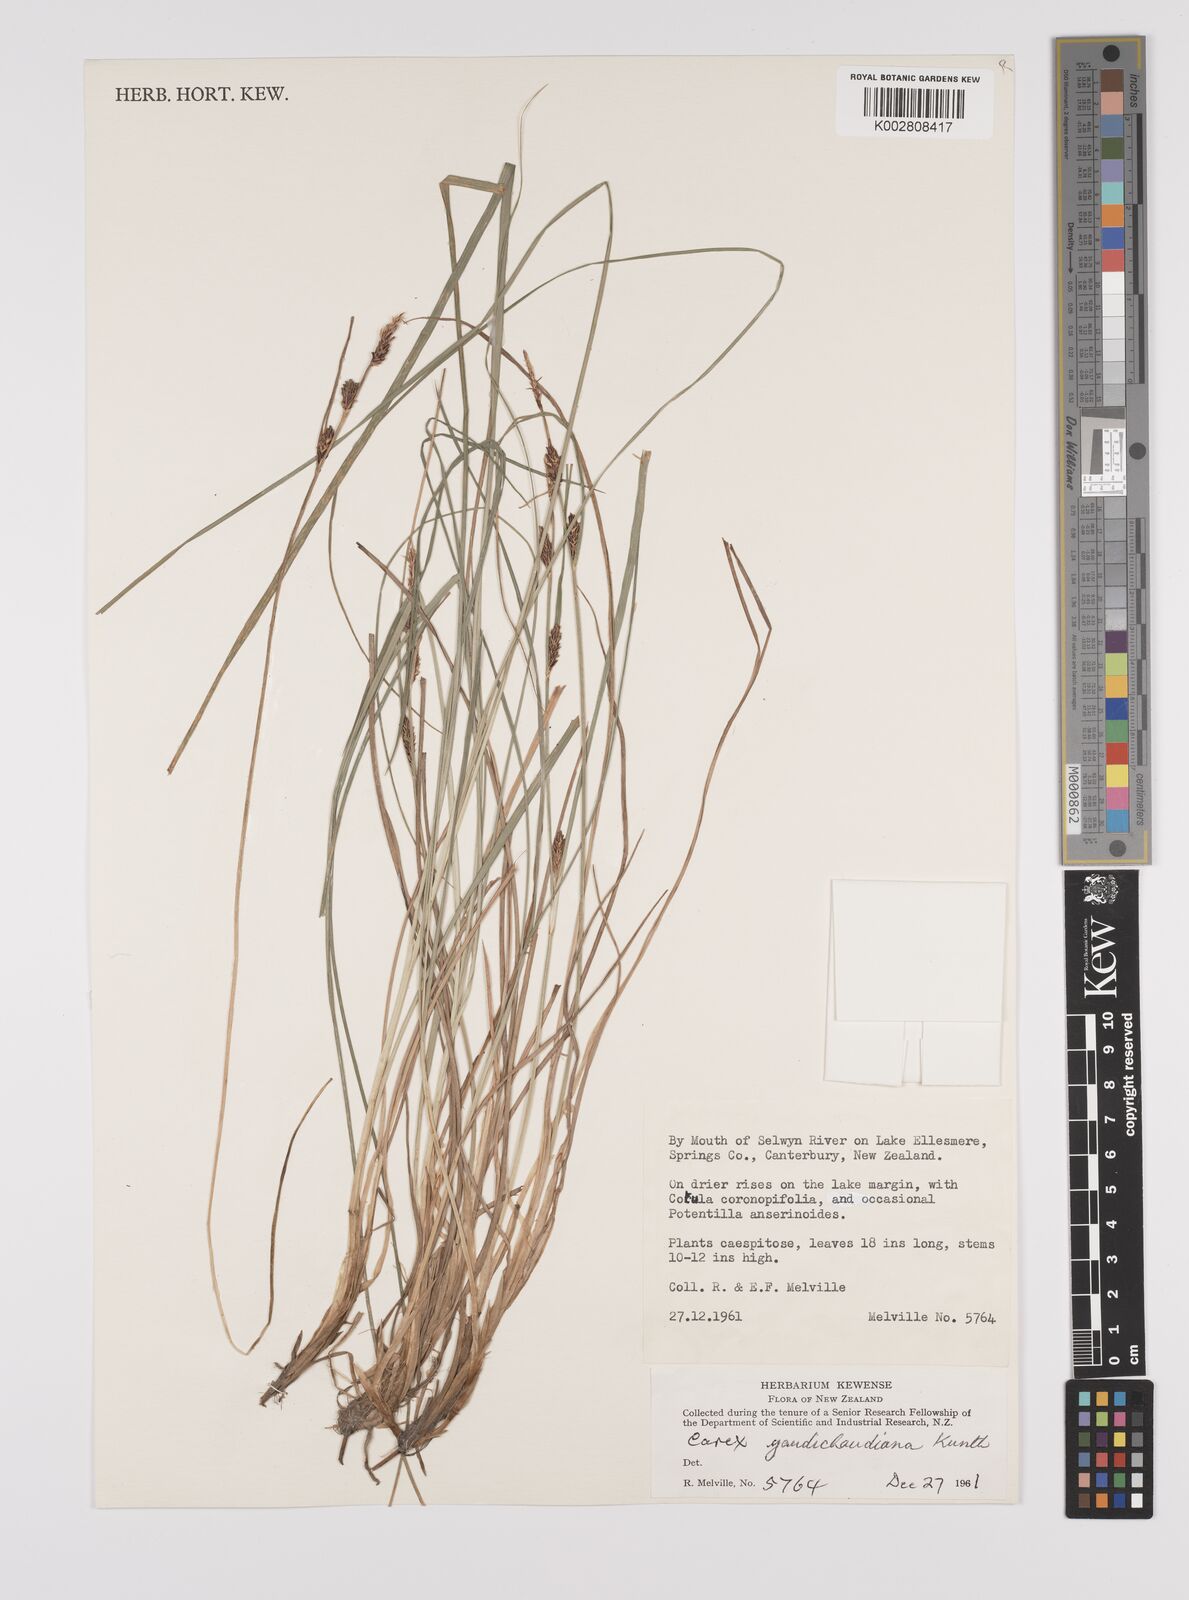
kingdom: Plantae
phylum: Tracheophyta
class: Liliopsida
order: Poales
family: Cyperaceae
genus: Carex
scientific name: Carex gaudichaudiana
